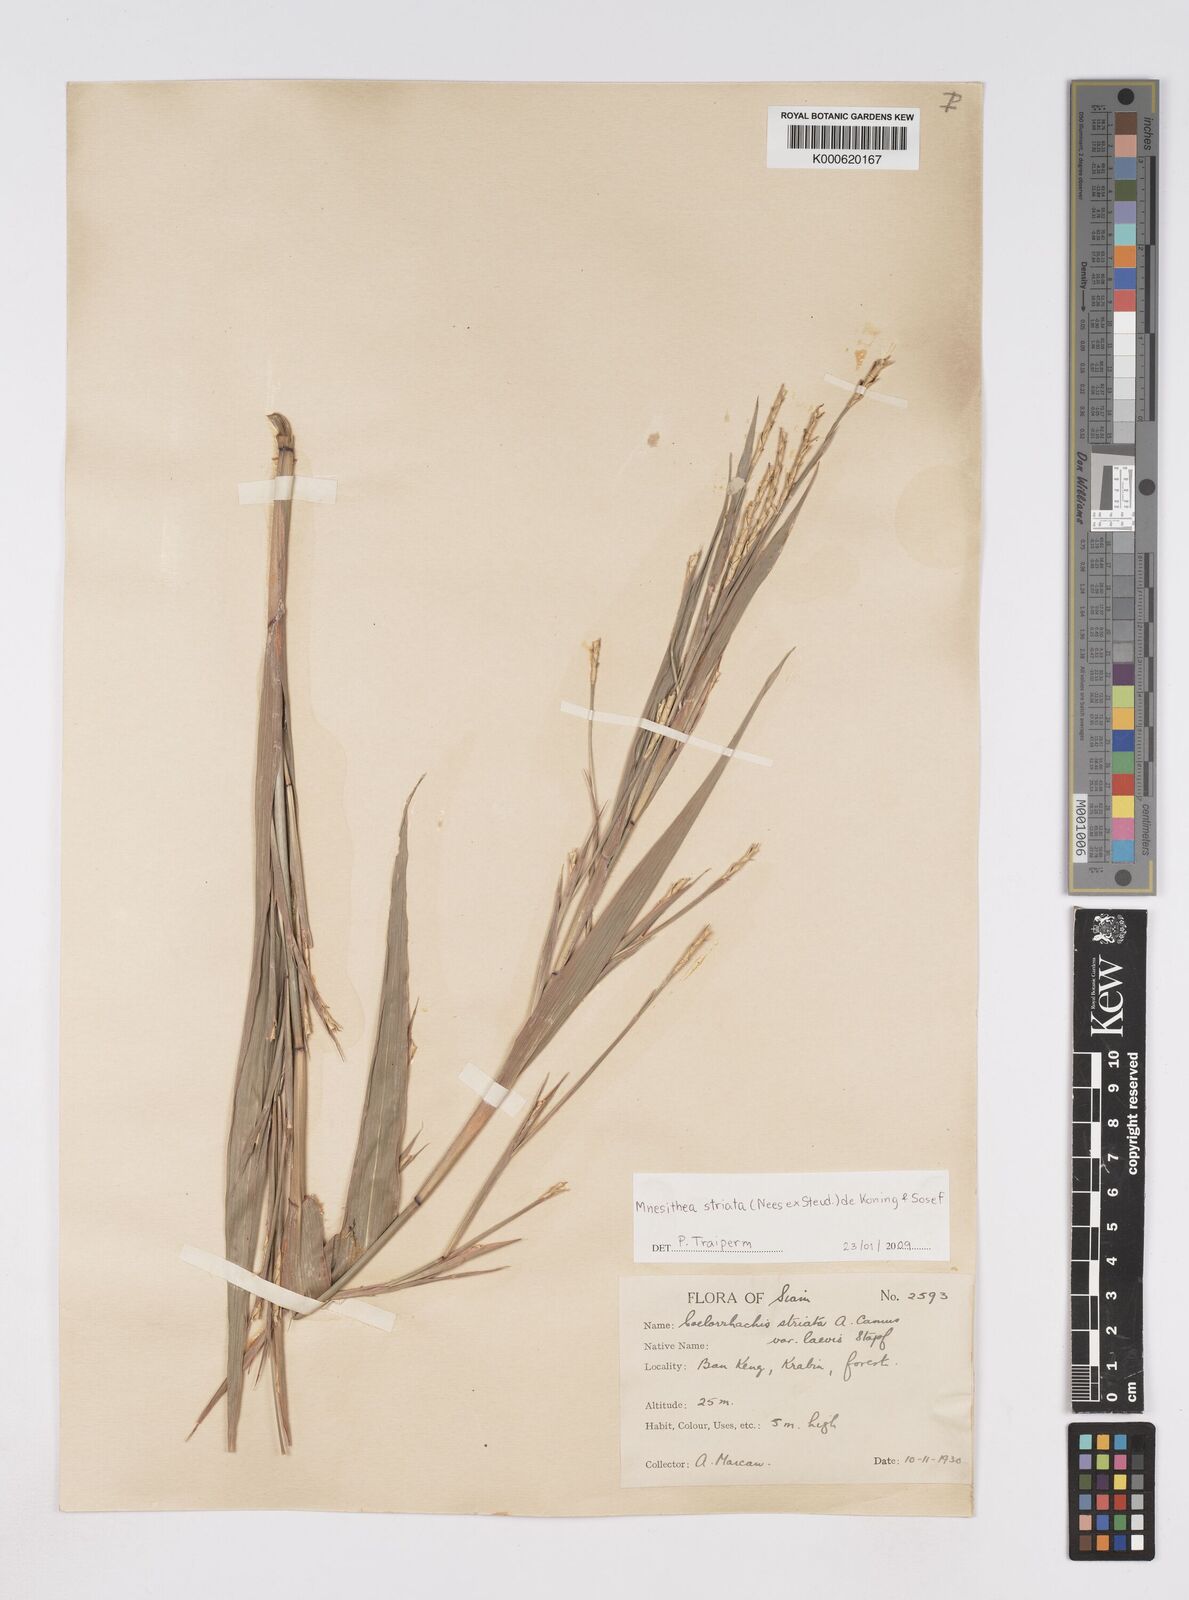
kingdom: Plantae
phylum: Tracheophyta
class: Liliopsida
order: Poales
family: Poaceae
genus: Rottboellia
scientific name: Rottboellia striata
